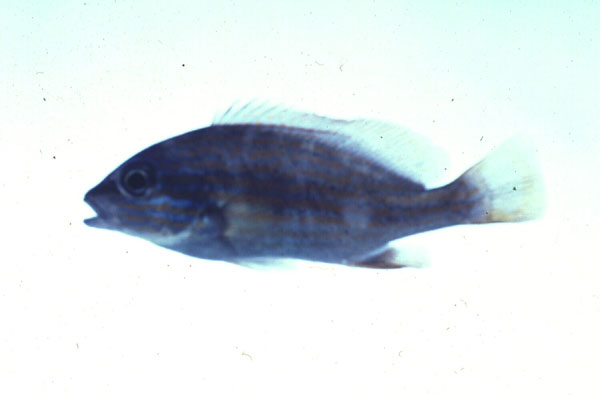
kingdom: Animalia
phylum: Chordata
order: Perciformes
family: Haemulidae
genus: Plectorhinchus
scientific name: Plectorhinchus flavomaculatus
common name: Netted sweetlips
